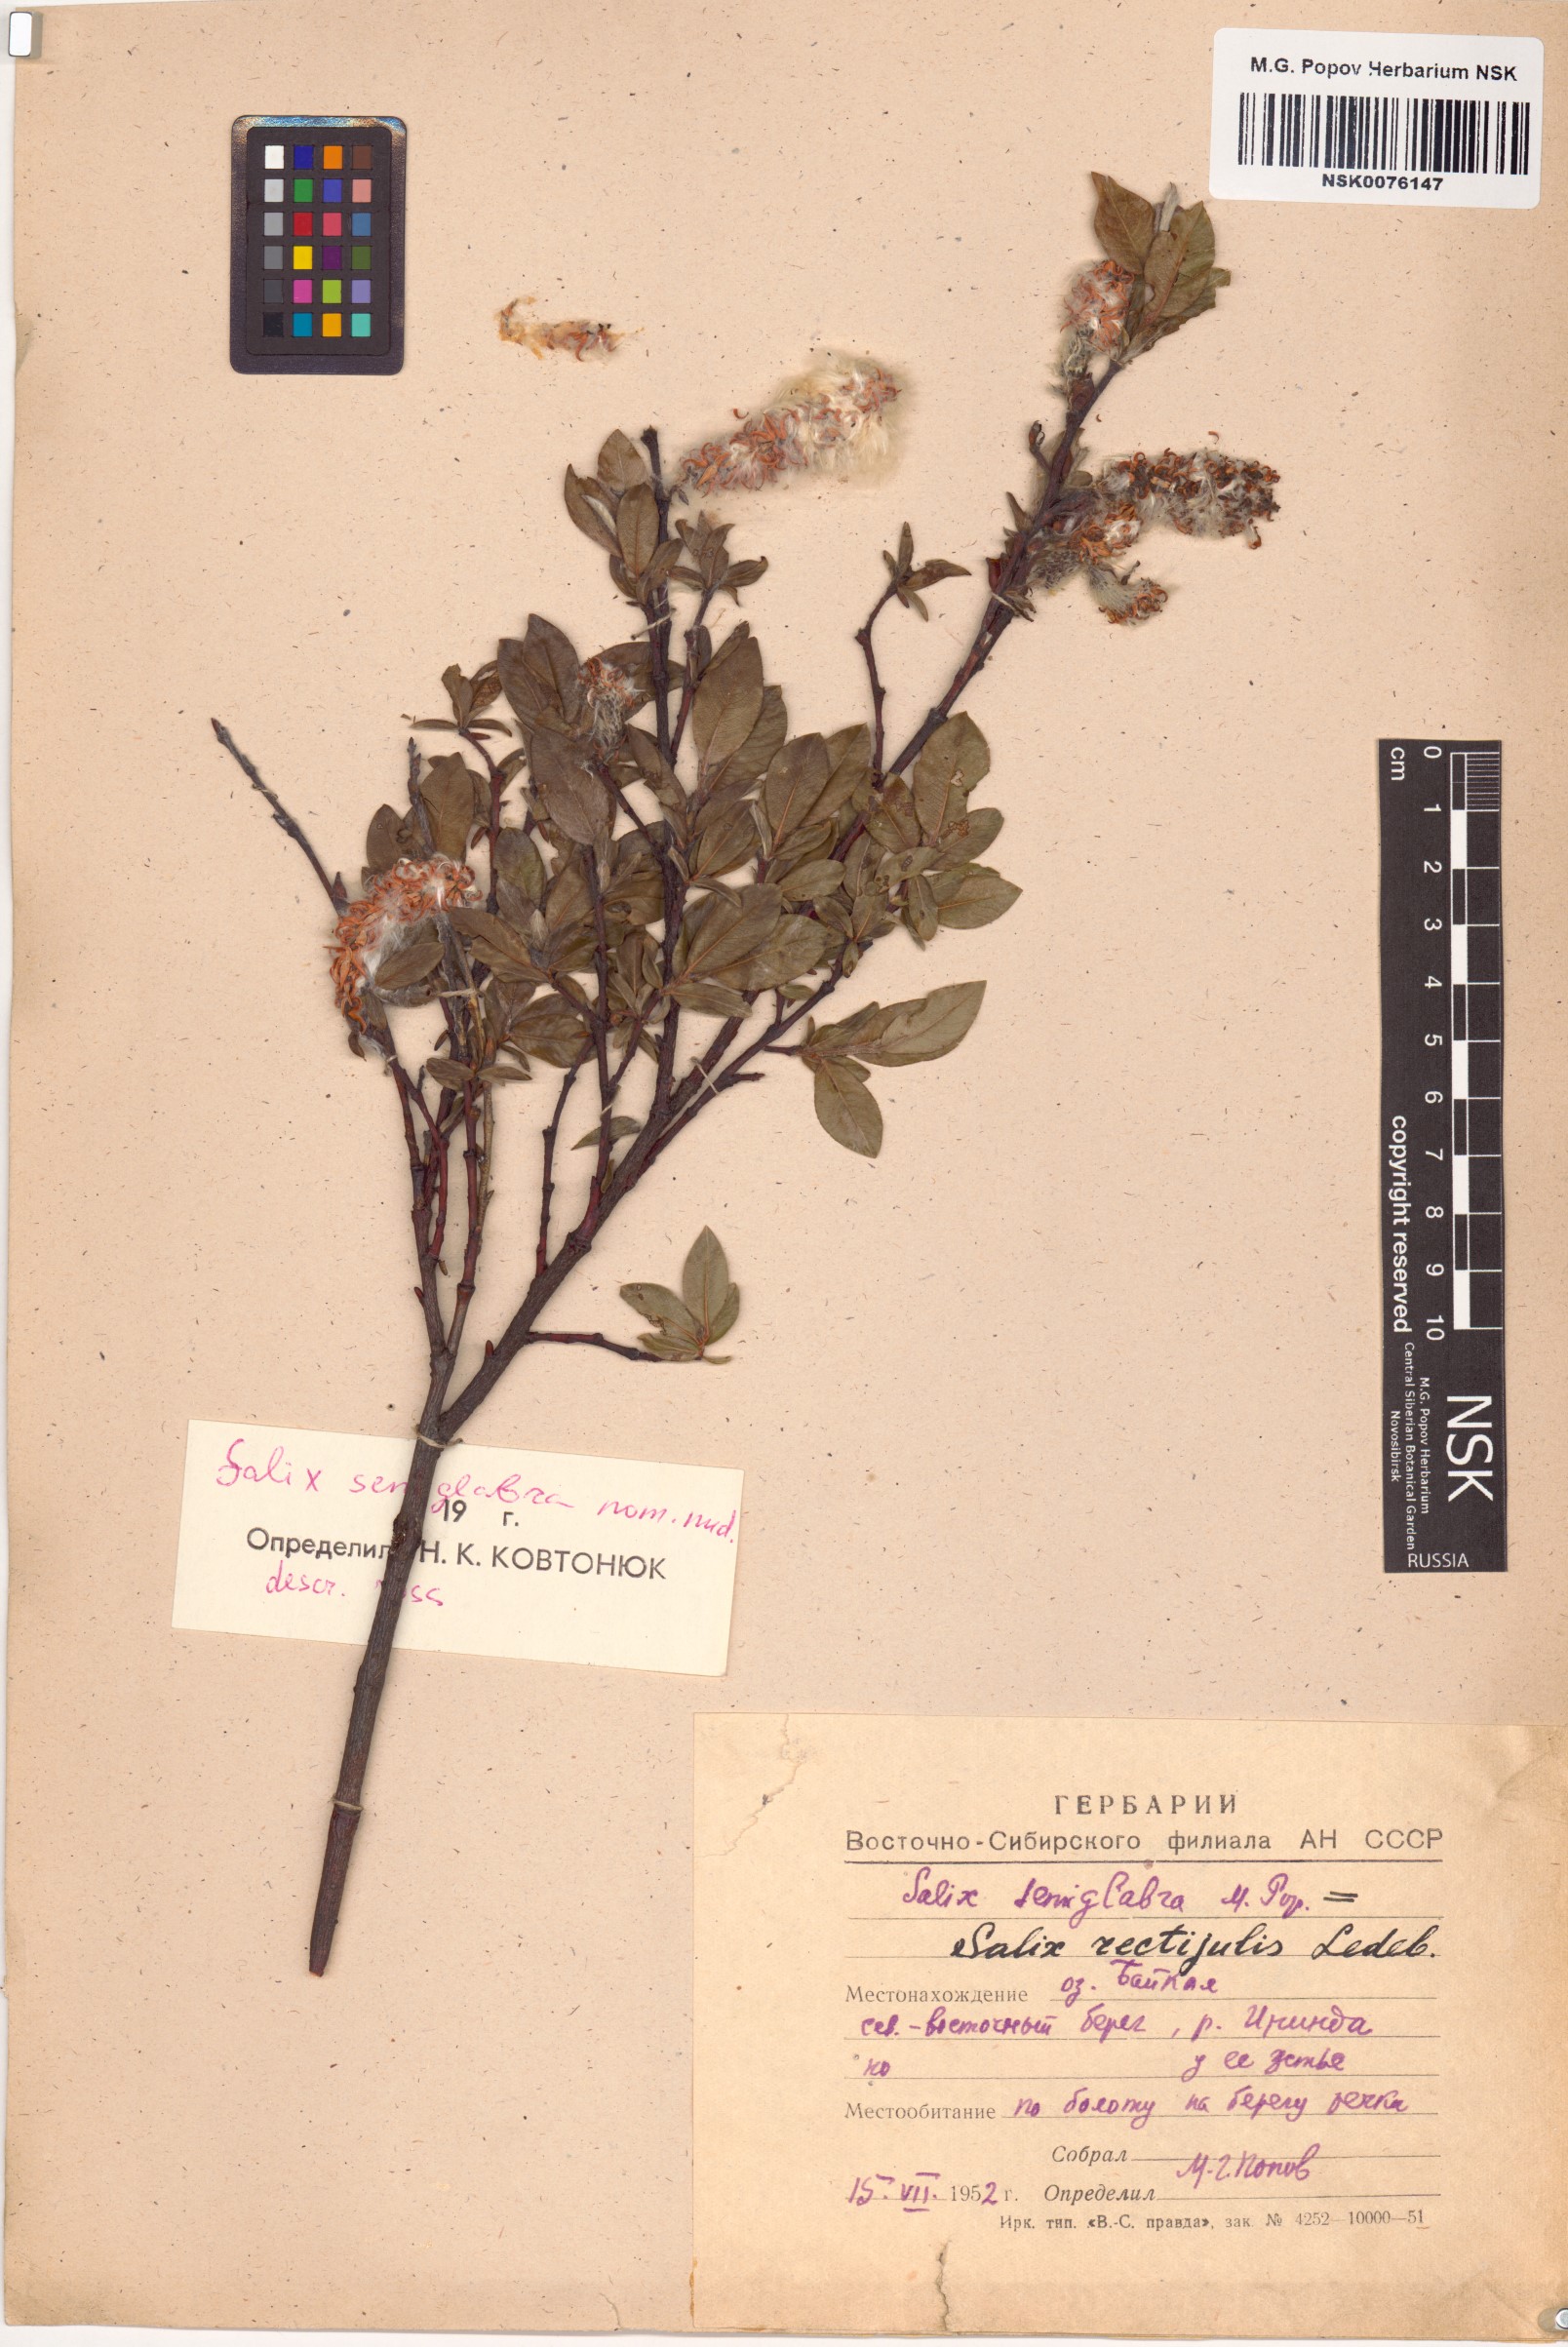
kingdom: Plantae
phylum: Tracheophyta
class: Magnoliopsida
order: Malpighiales
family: Salicaceae
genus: Salix
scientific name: Salix rectijulis
